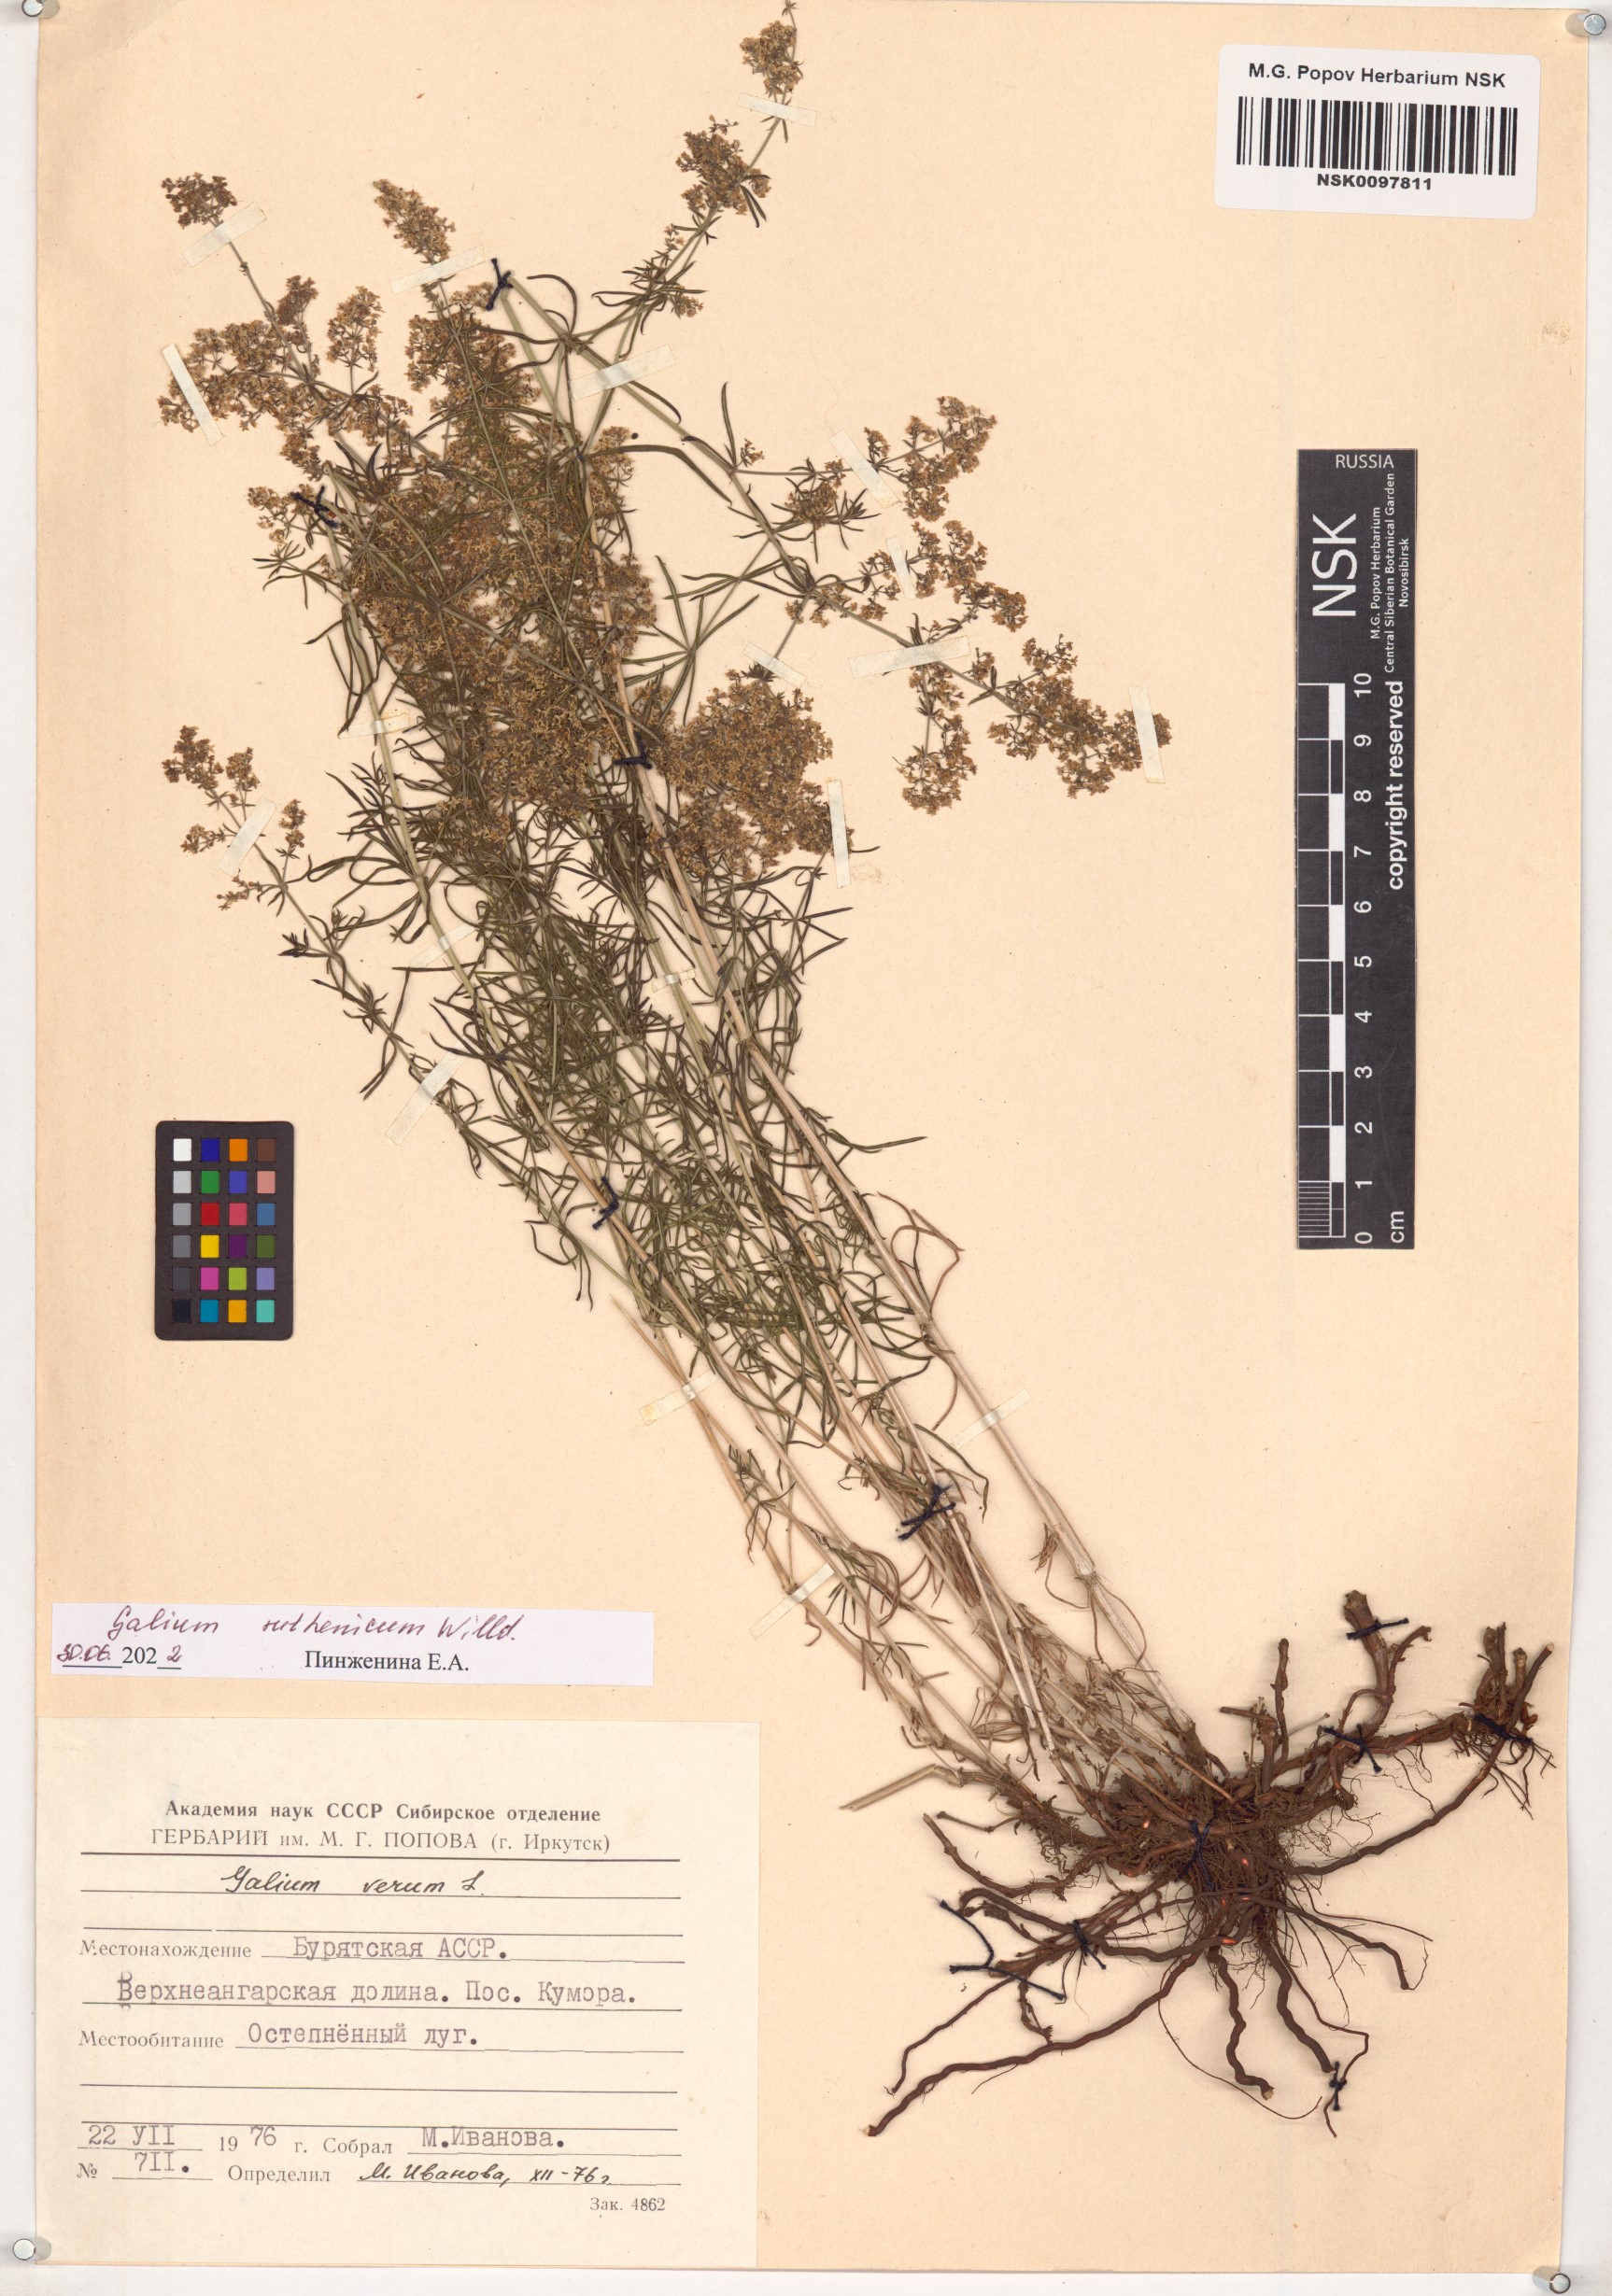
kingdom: Plantae
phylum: Tracheophyta
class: Magnoliopsida
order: Gentianales
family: Rubiaceae
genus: Galium
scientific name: Galium verum
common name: Lady's bedstraw
